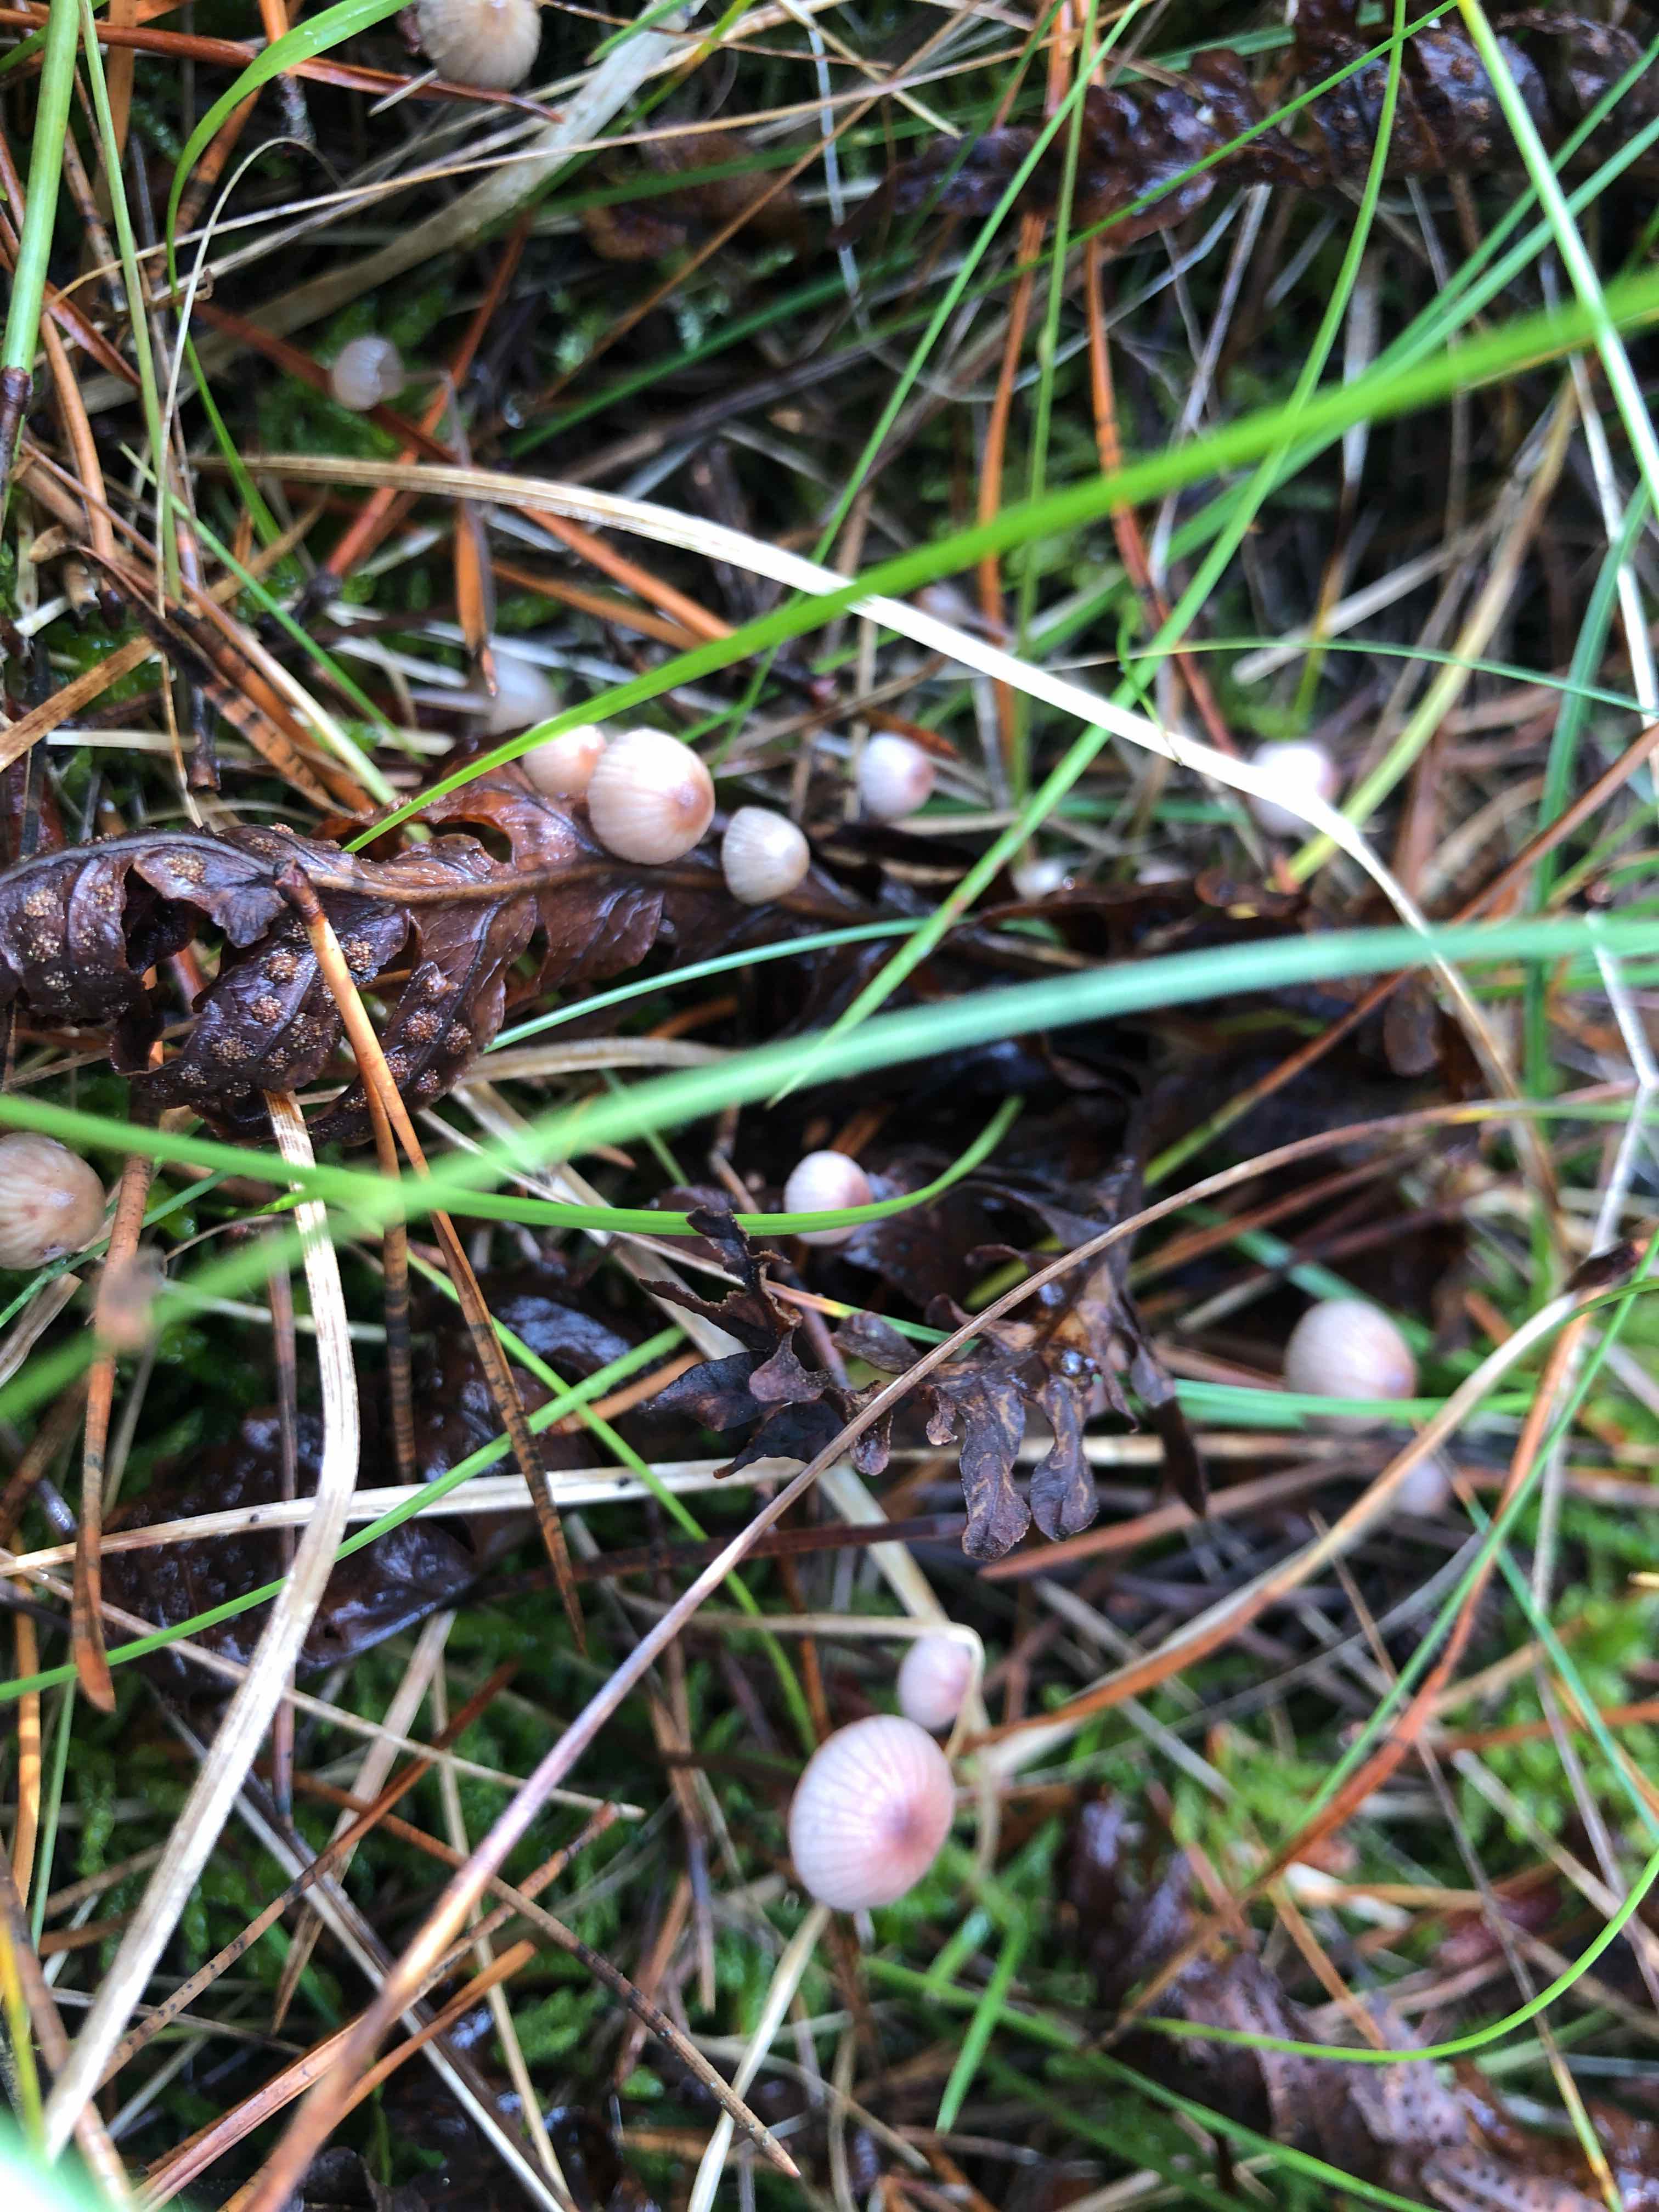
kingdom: Fungi
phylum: Basidiomycota
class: Agaricomycetes
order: Agaricales
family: Mycenaceae
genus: Mycena
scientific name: Mycena sanguinolenta
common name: rødmælket huesvamp
